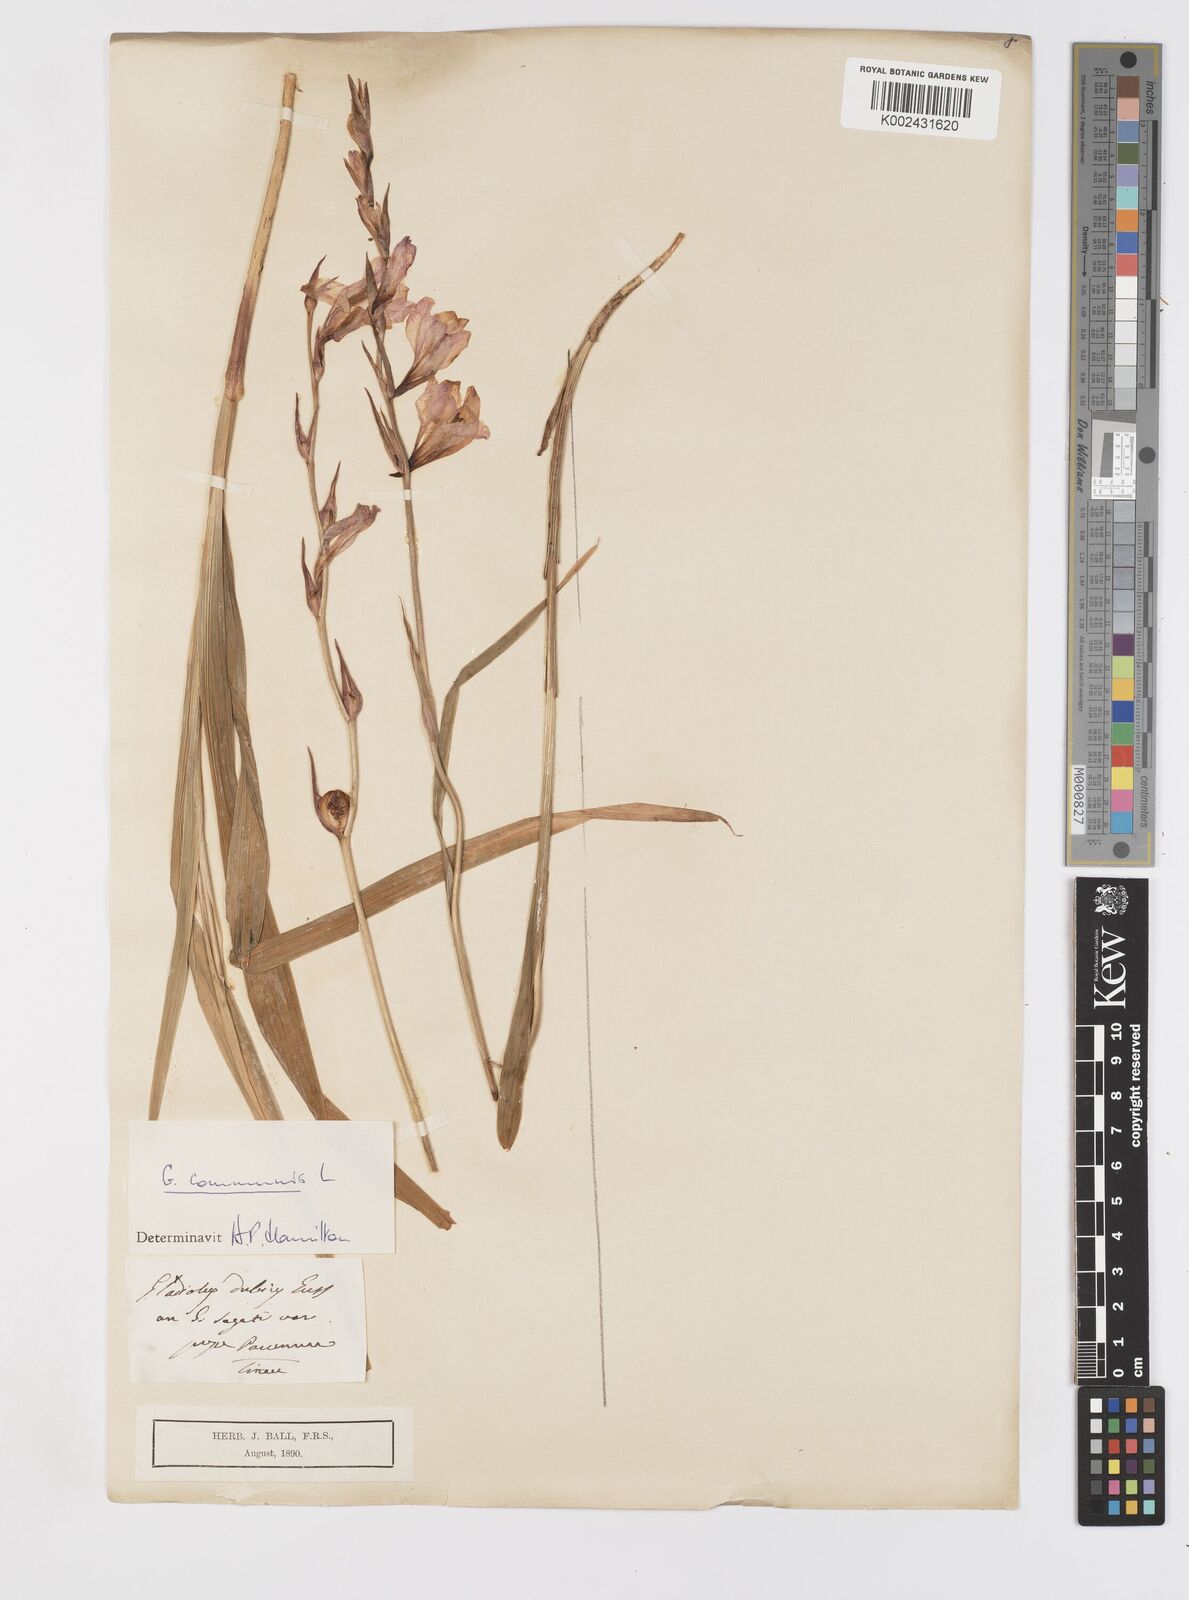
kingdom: Plantae
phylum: Tracheophyta
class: Liliopsida
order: Asparagales
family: Iridaceae
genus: Gladiolus
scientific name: Gladiolus communis
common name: Eastern gladiolus
